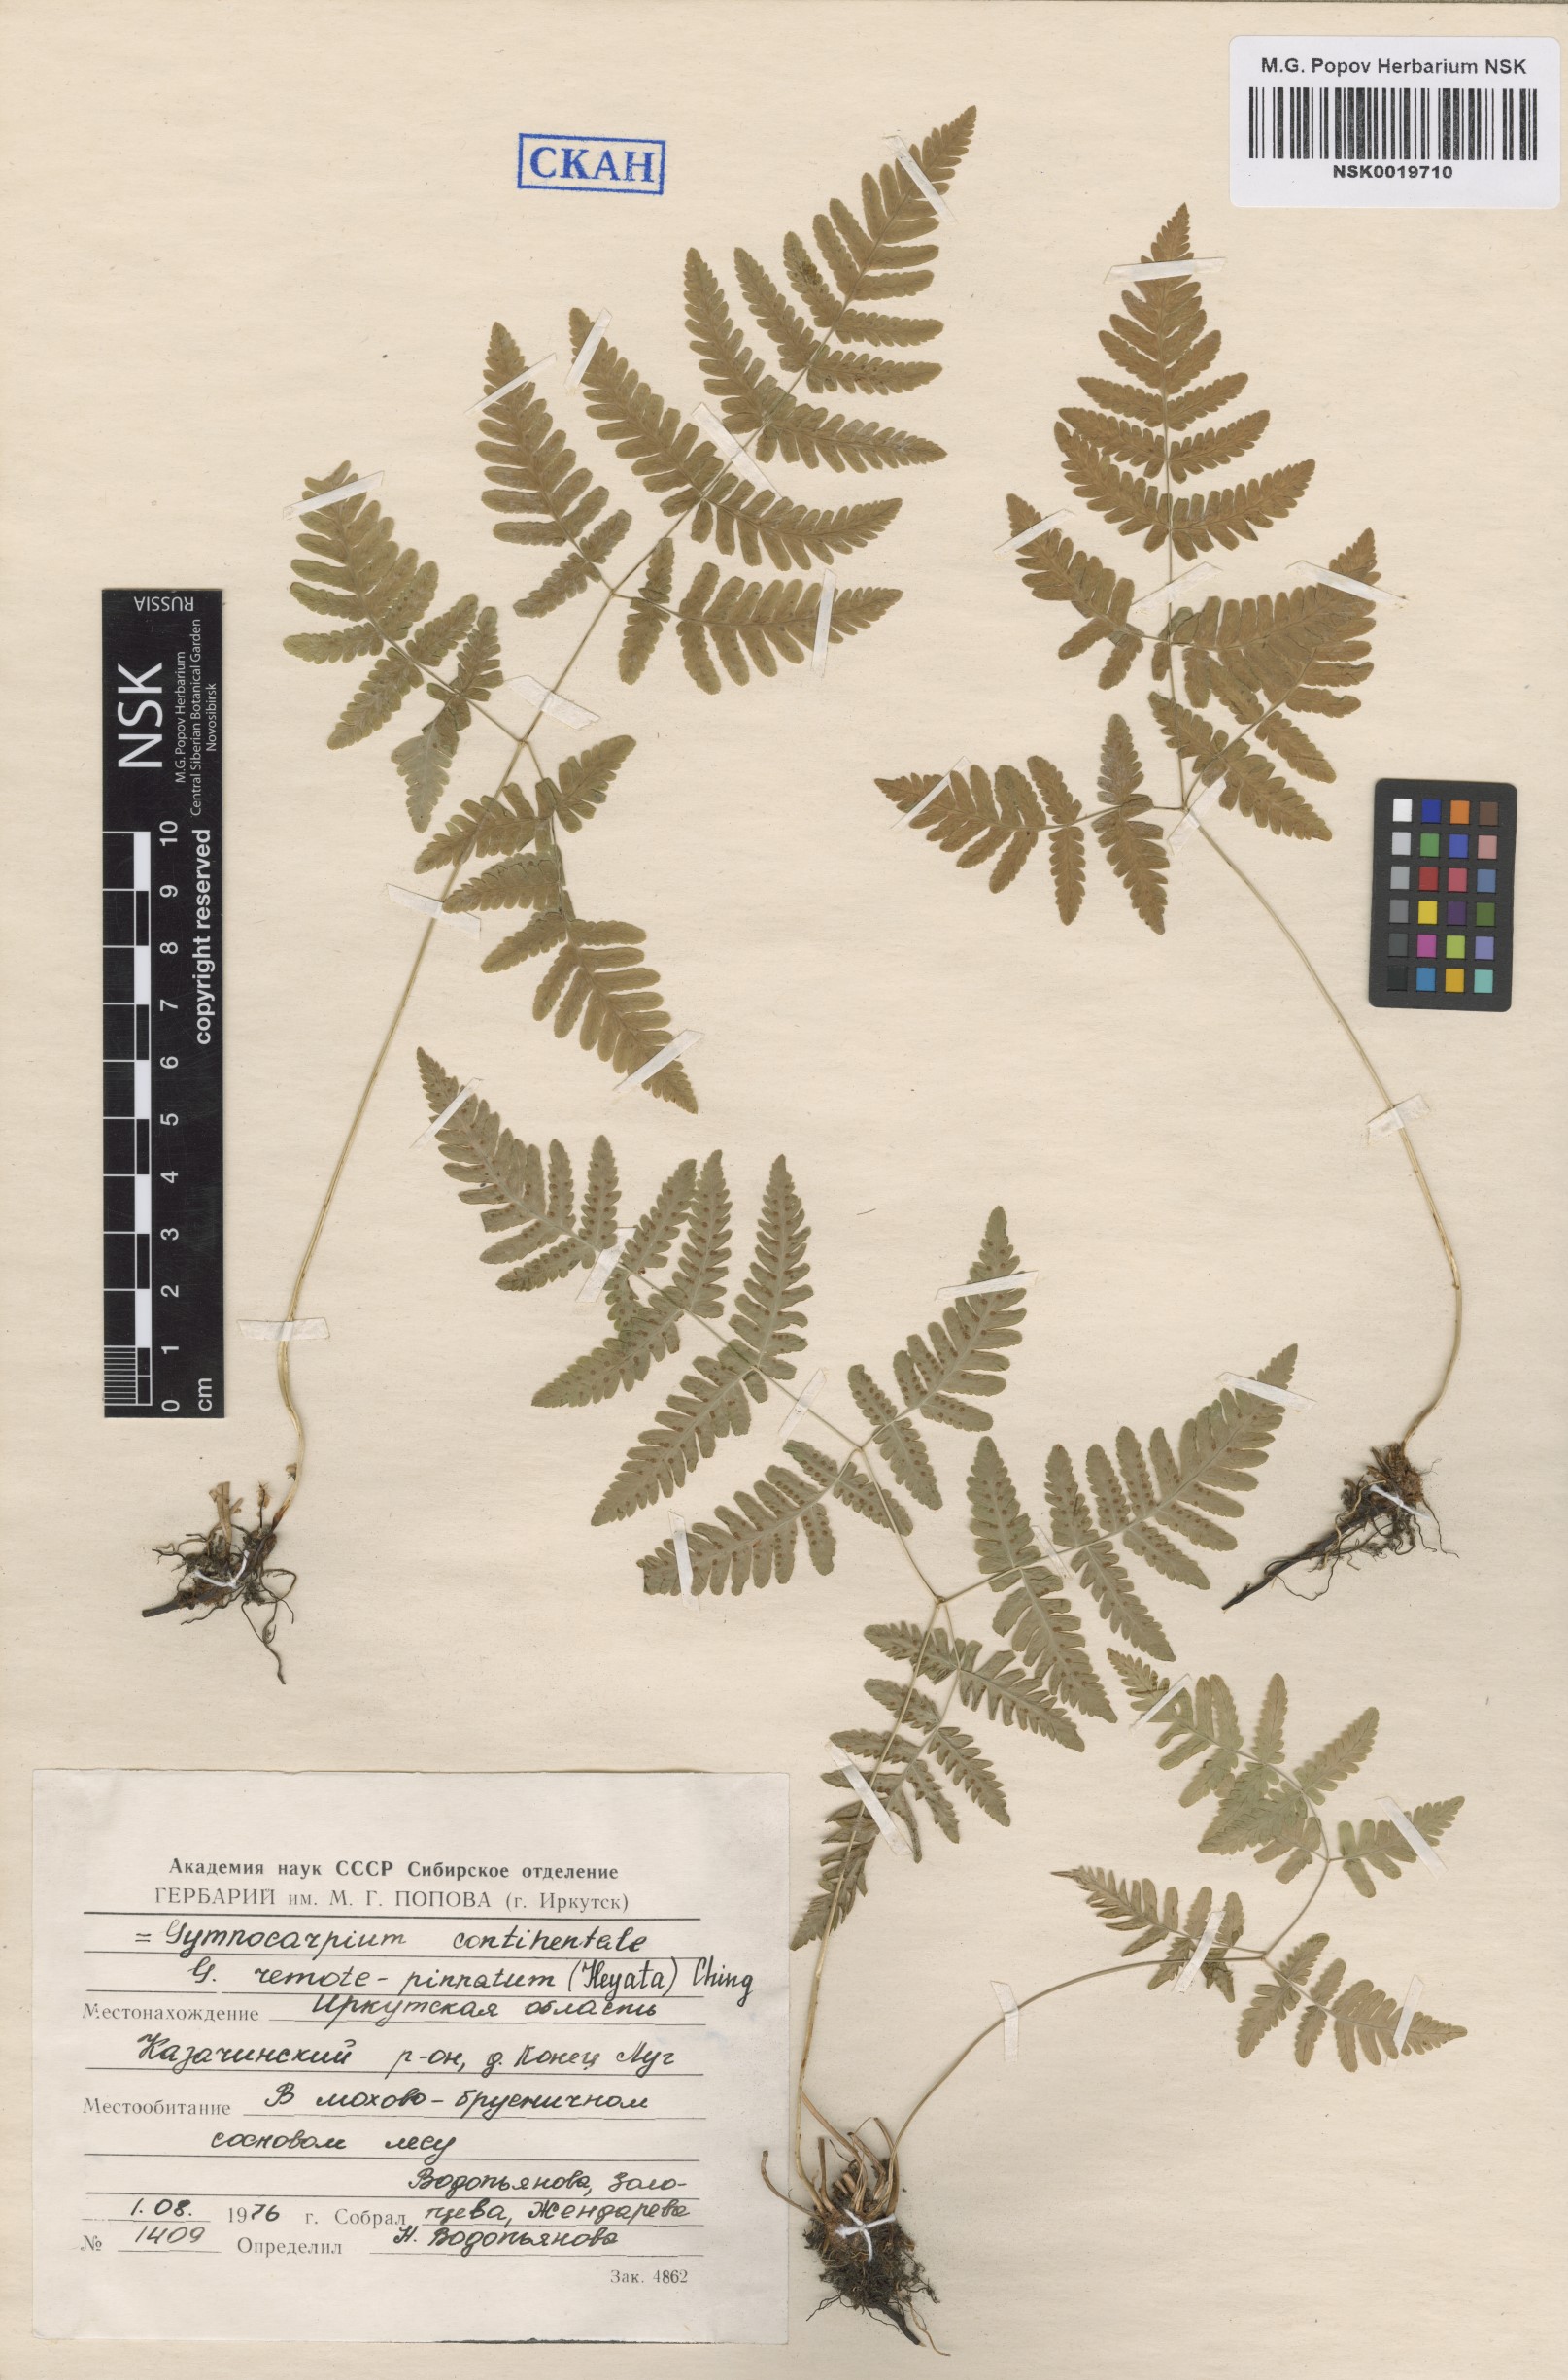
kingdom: Plantae
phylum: Tracheophyta
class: Polypodiopsida
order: Polypodiales
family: Cystopteridaceae
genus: Gymnocarpium
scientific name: Gymnocarpium continentale
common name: Asian oak fern
